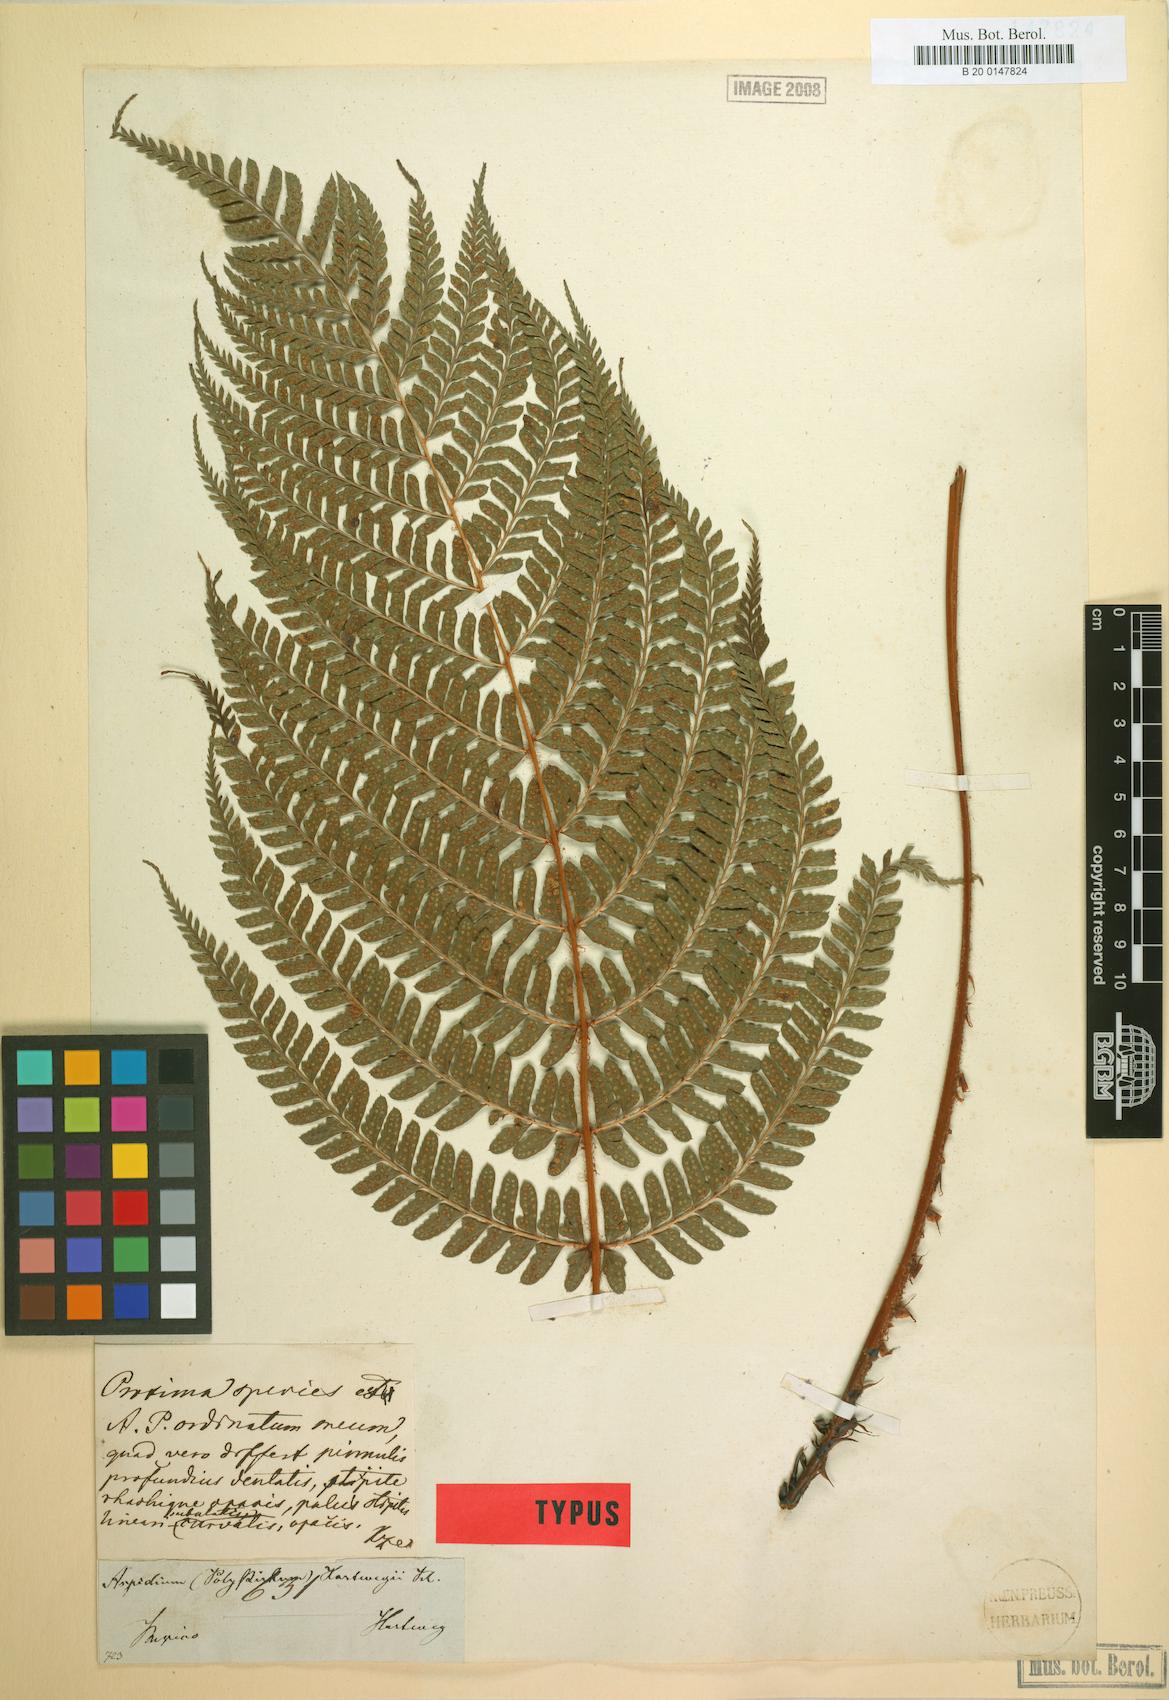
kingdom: Plantae
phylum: Tracheophyta
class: Polypodiopsida
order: Polypodiales
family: Dryopteridaceae
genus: Polystichum
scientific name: Polystichum hartwegii
